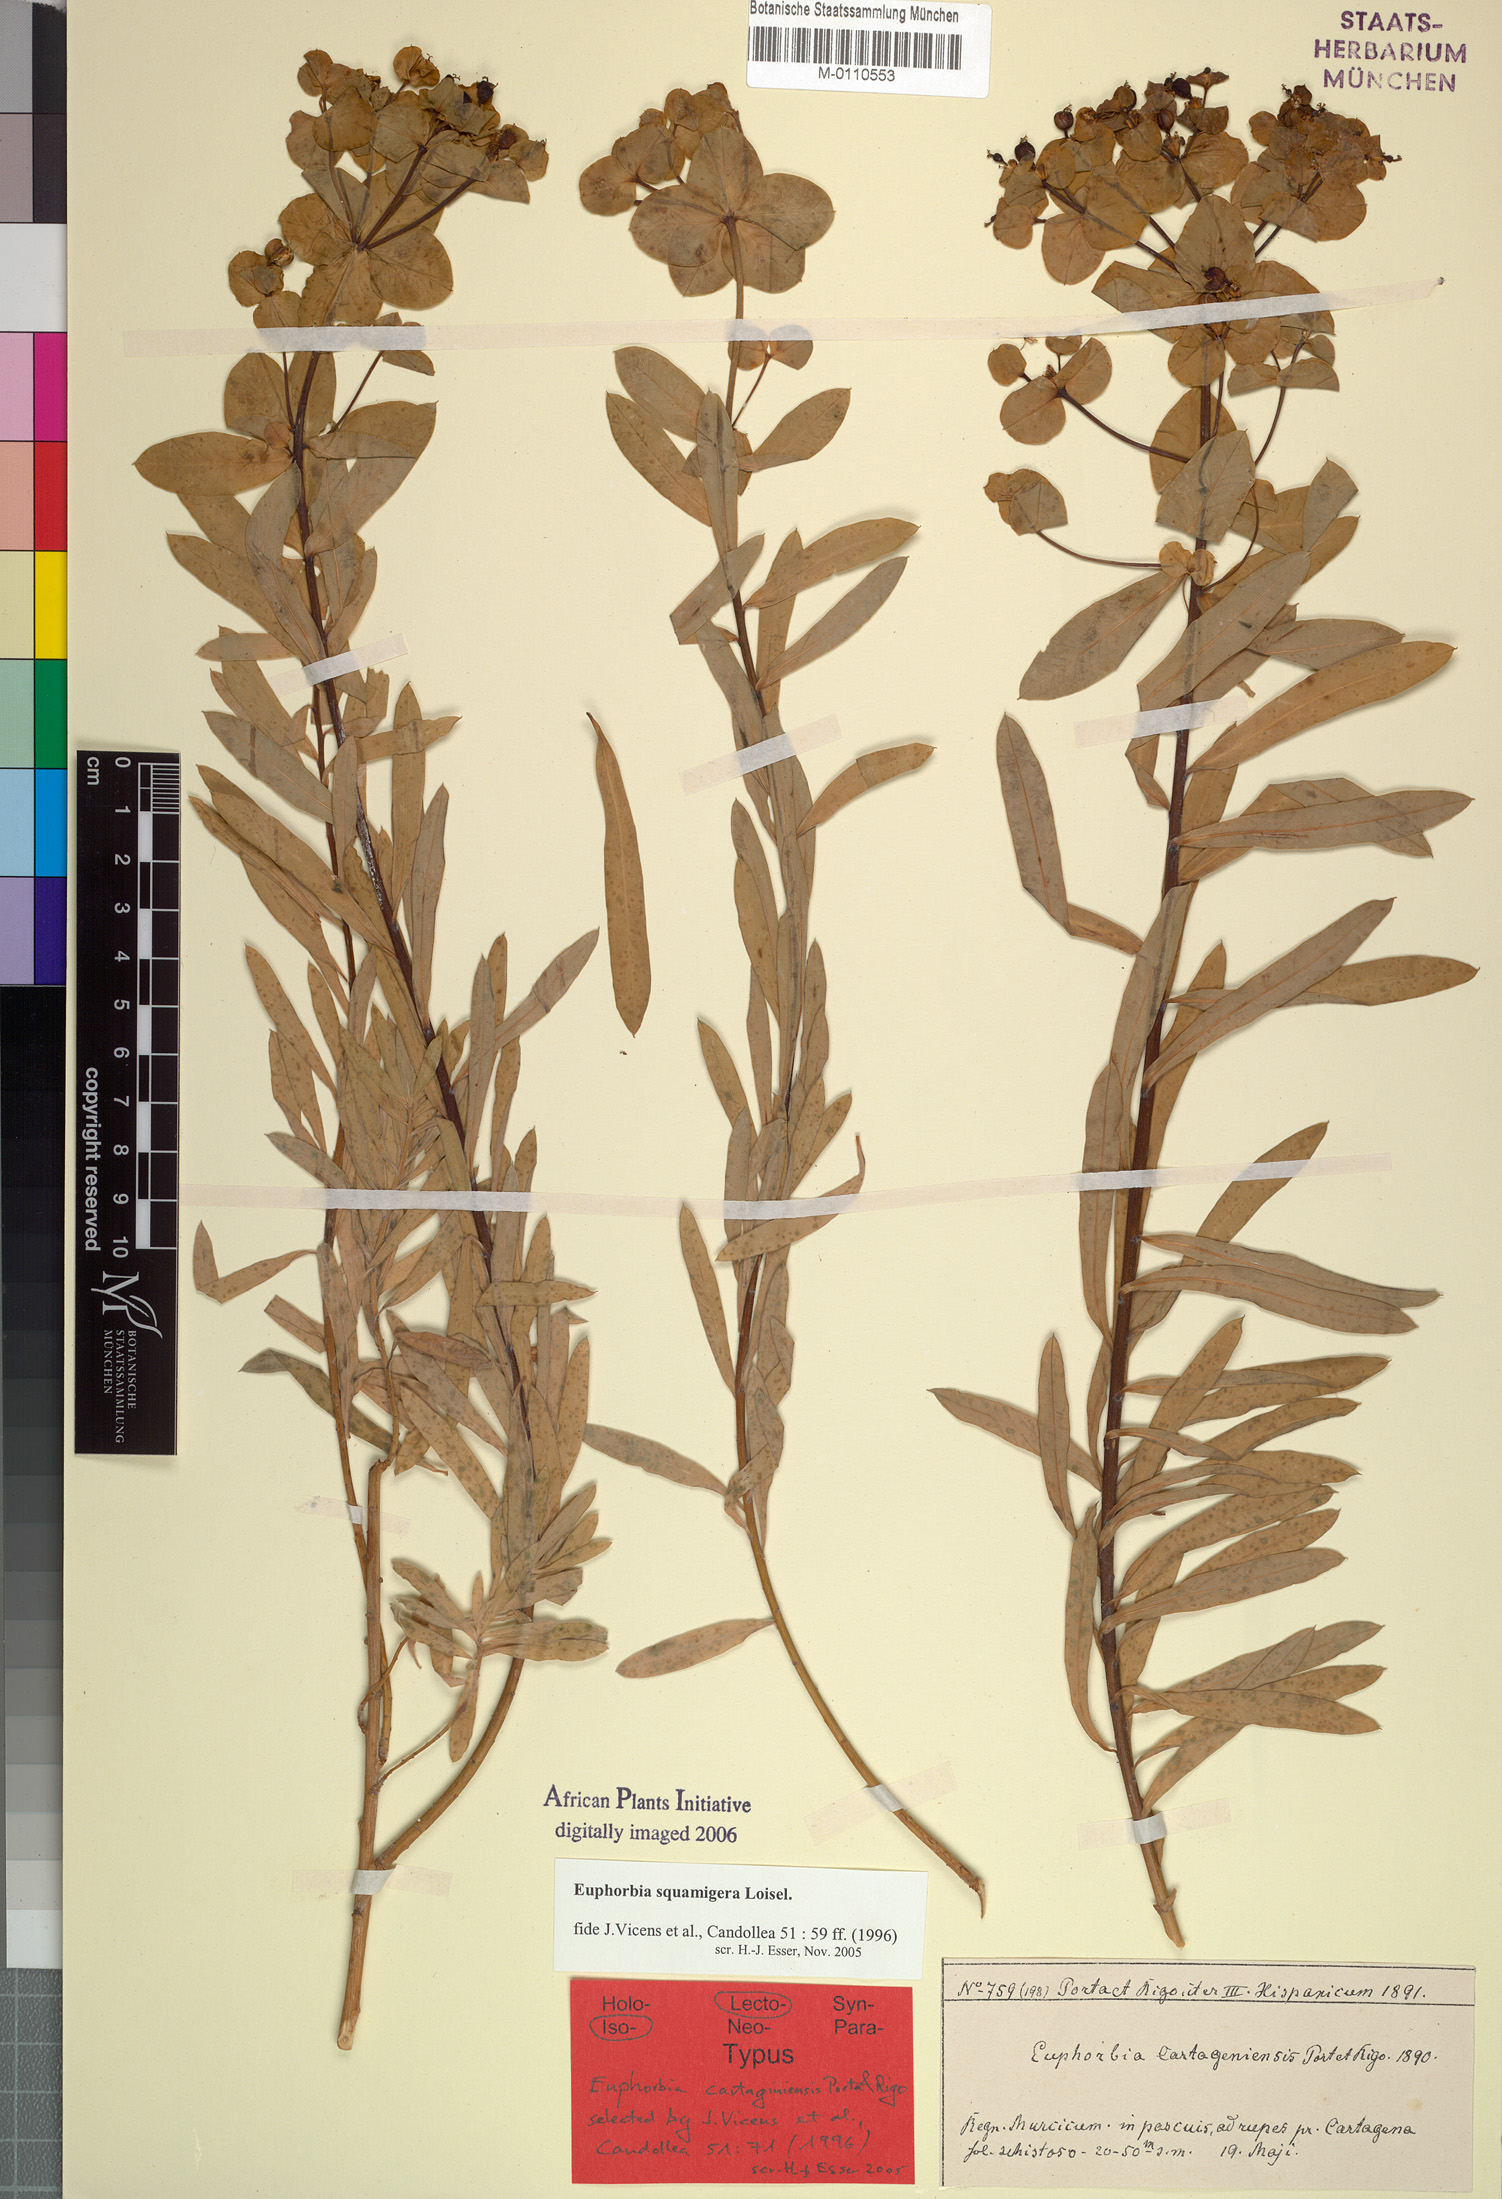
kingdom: Plantae
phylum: Tracheophyta
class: Magnoliopsida
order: Malpighiales
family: Euphorbiaceae
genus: Euphorbia
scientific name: Euphorbia squamigera
